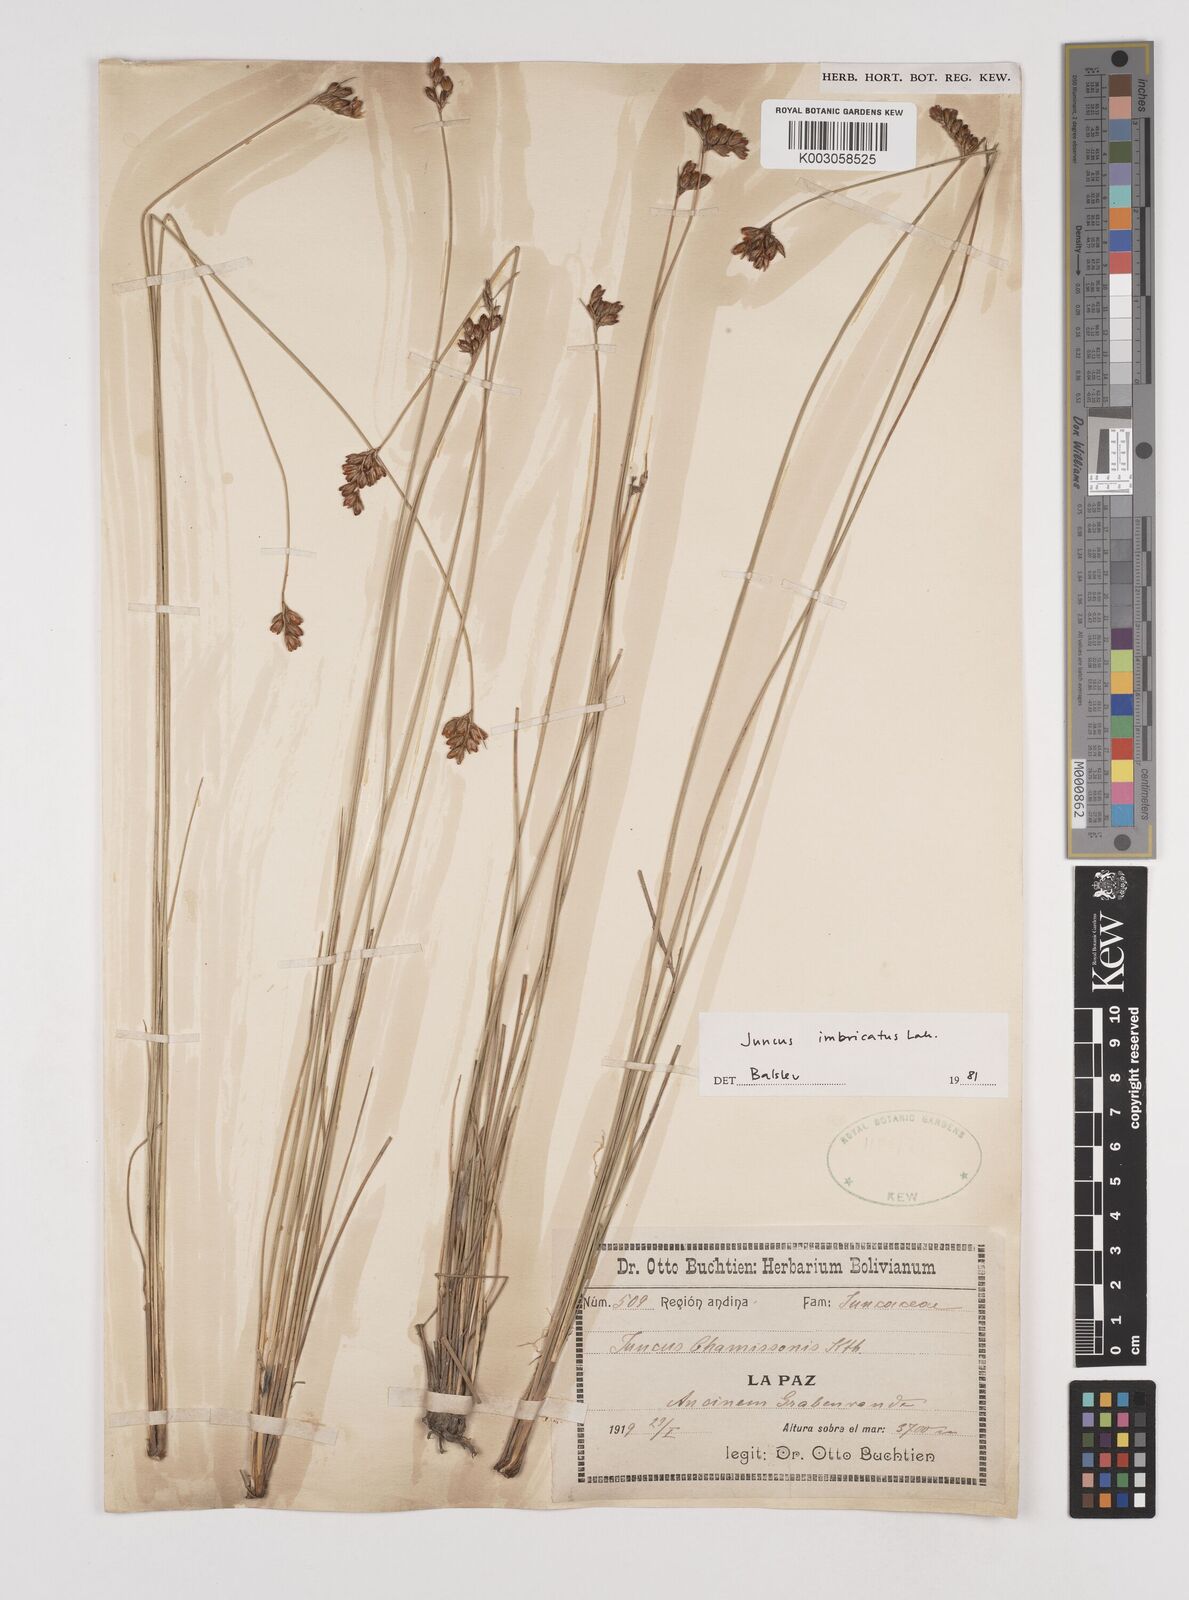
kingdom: Plantae
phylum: Tracheophyta
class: Liliopsida
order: Poales
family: Juncaceae
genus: Juncus
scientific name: Juncus imbricatus
